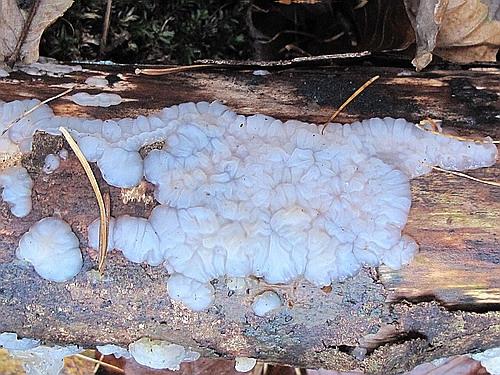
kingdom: Fungi
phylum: Basidiomycota
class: Agaricomycetes
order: Auriculariales
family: Auriculariaceae
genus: Exidia
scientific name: Exidia thuretiana
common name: hvidlig bævretop
